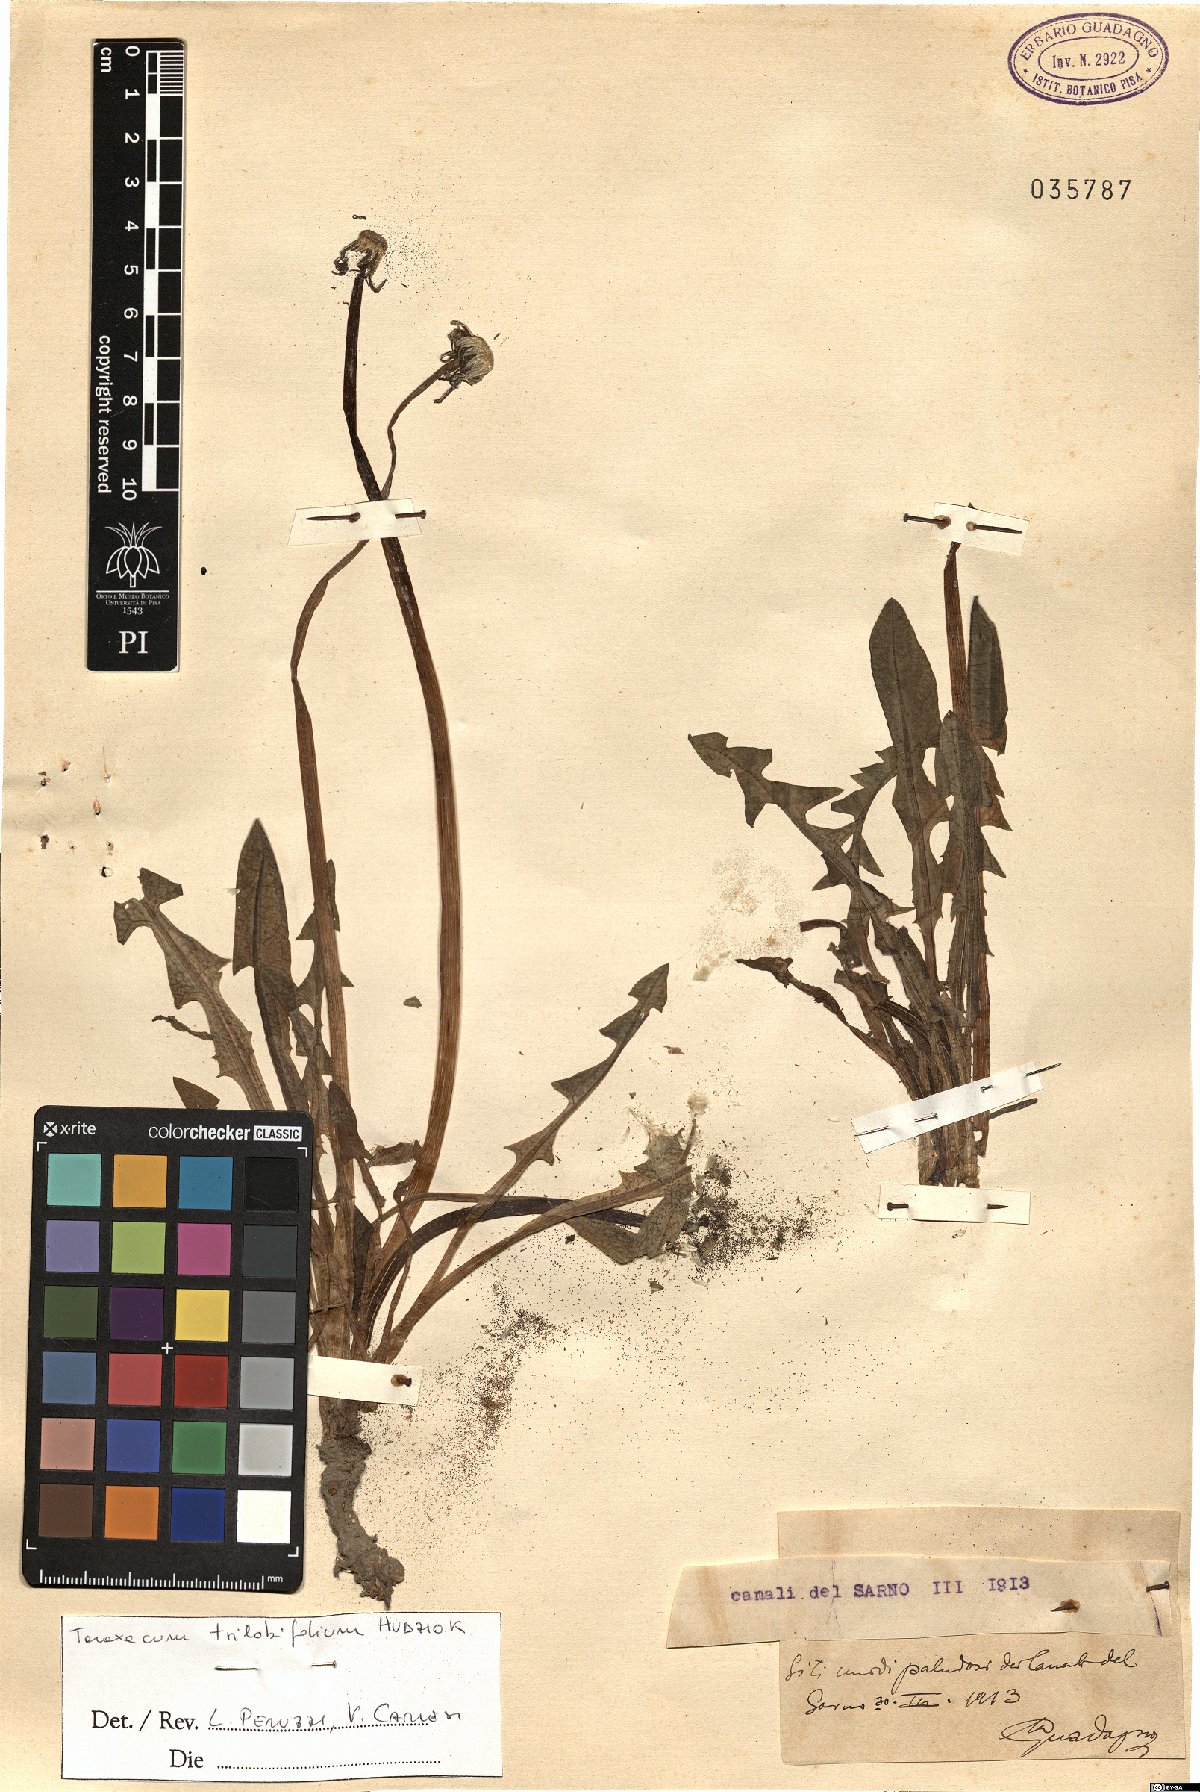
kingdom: Plantae
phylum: Tracheophyta
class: Magnoliopsida
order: Asterales
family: Asteraceae
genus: Taraxacum
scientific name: Taraxacum trilobifolium
